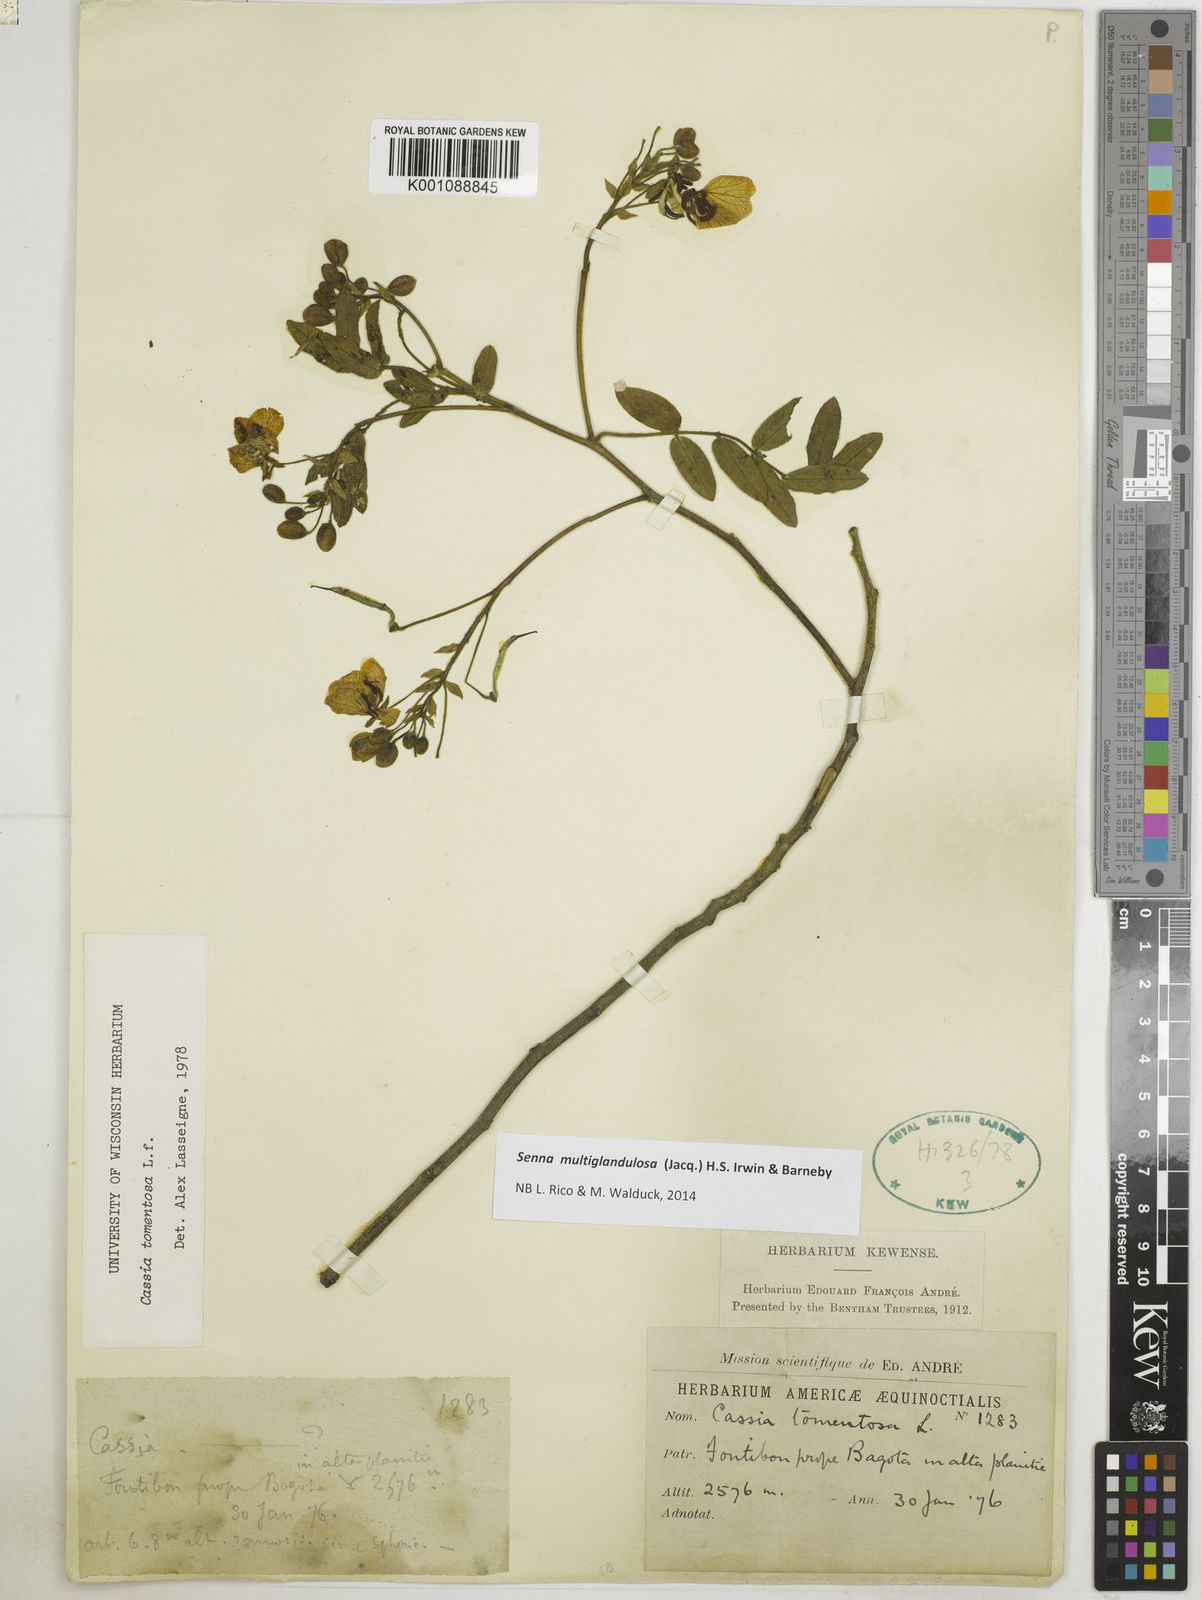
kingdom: Plantae
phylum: Tracheophyta
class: Magnoliopsida
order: Fabales
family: Fabaceae
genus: Senna
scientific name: Senna multiglandulosa
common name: Glandular senna
